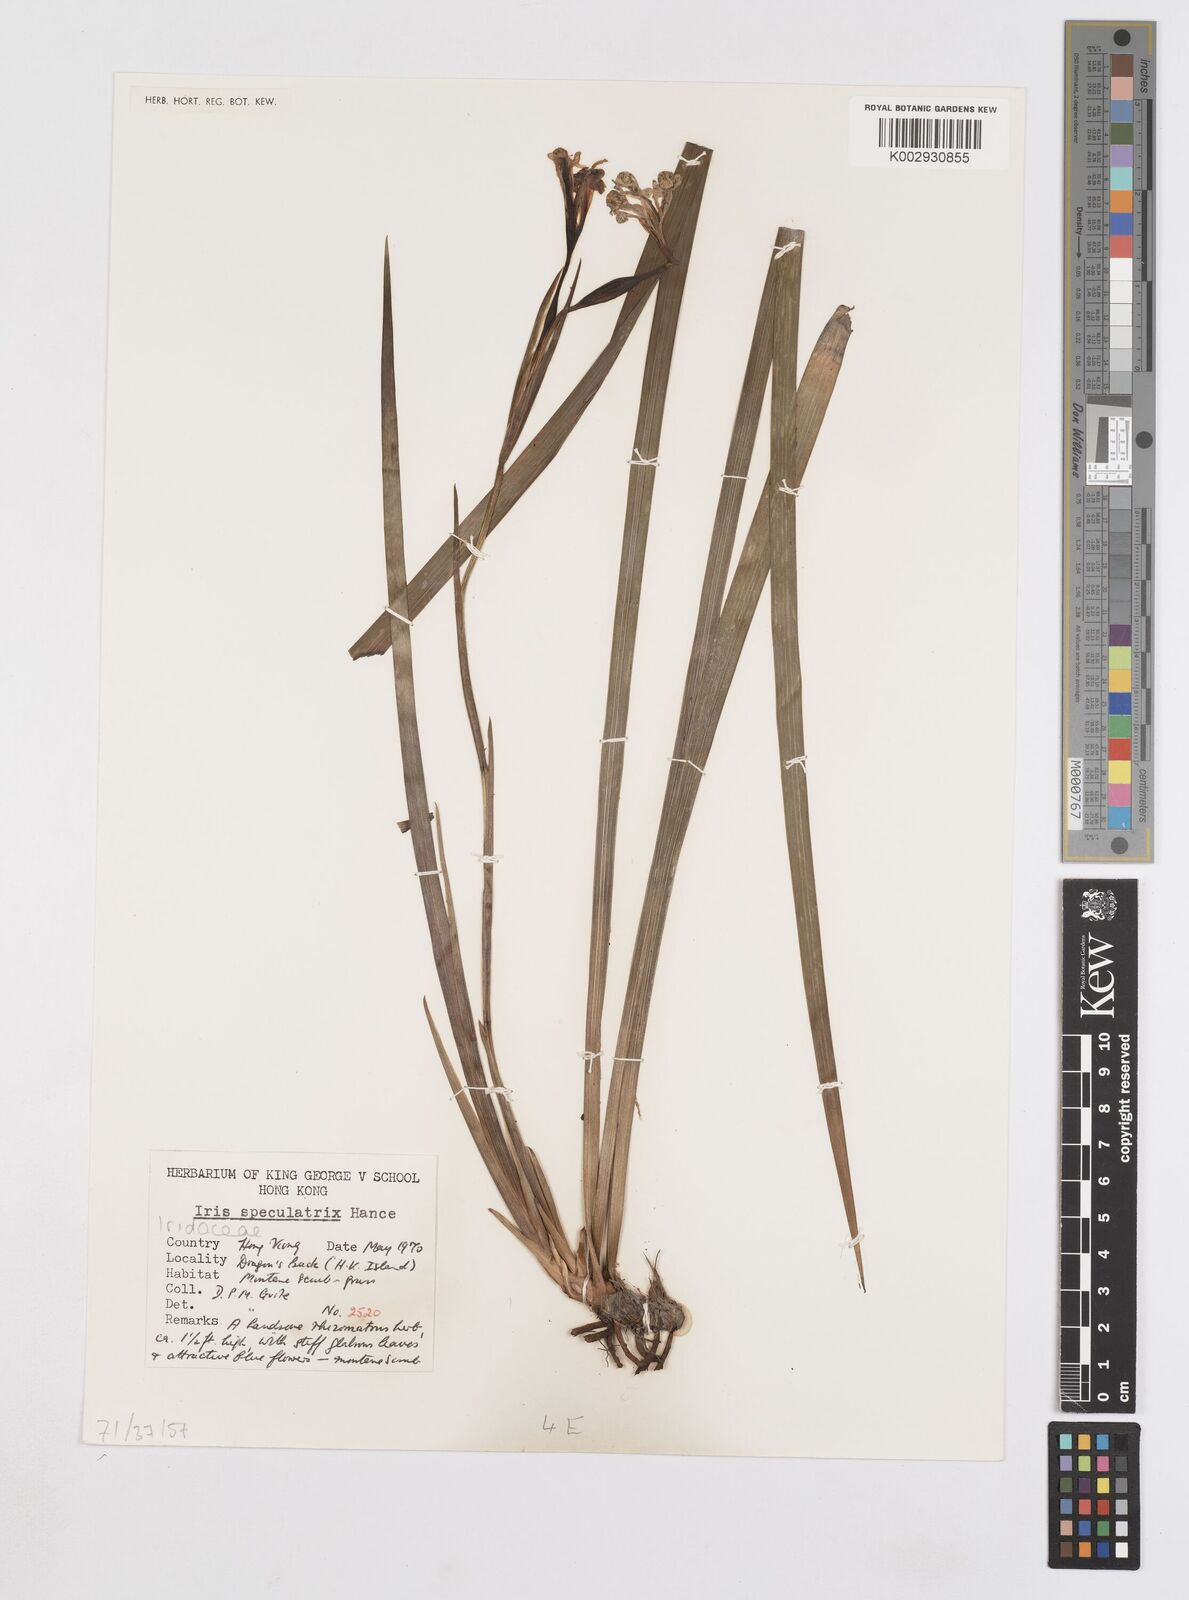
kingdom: Plantae
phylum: Tracheophyta
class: Liliopsida
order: Asparagales
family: Iridaceae
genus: Iris
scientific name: Iris speculatrix
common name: Small-flower iris
